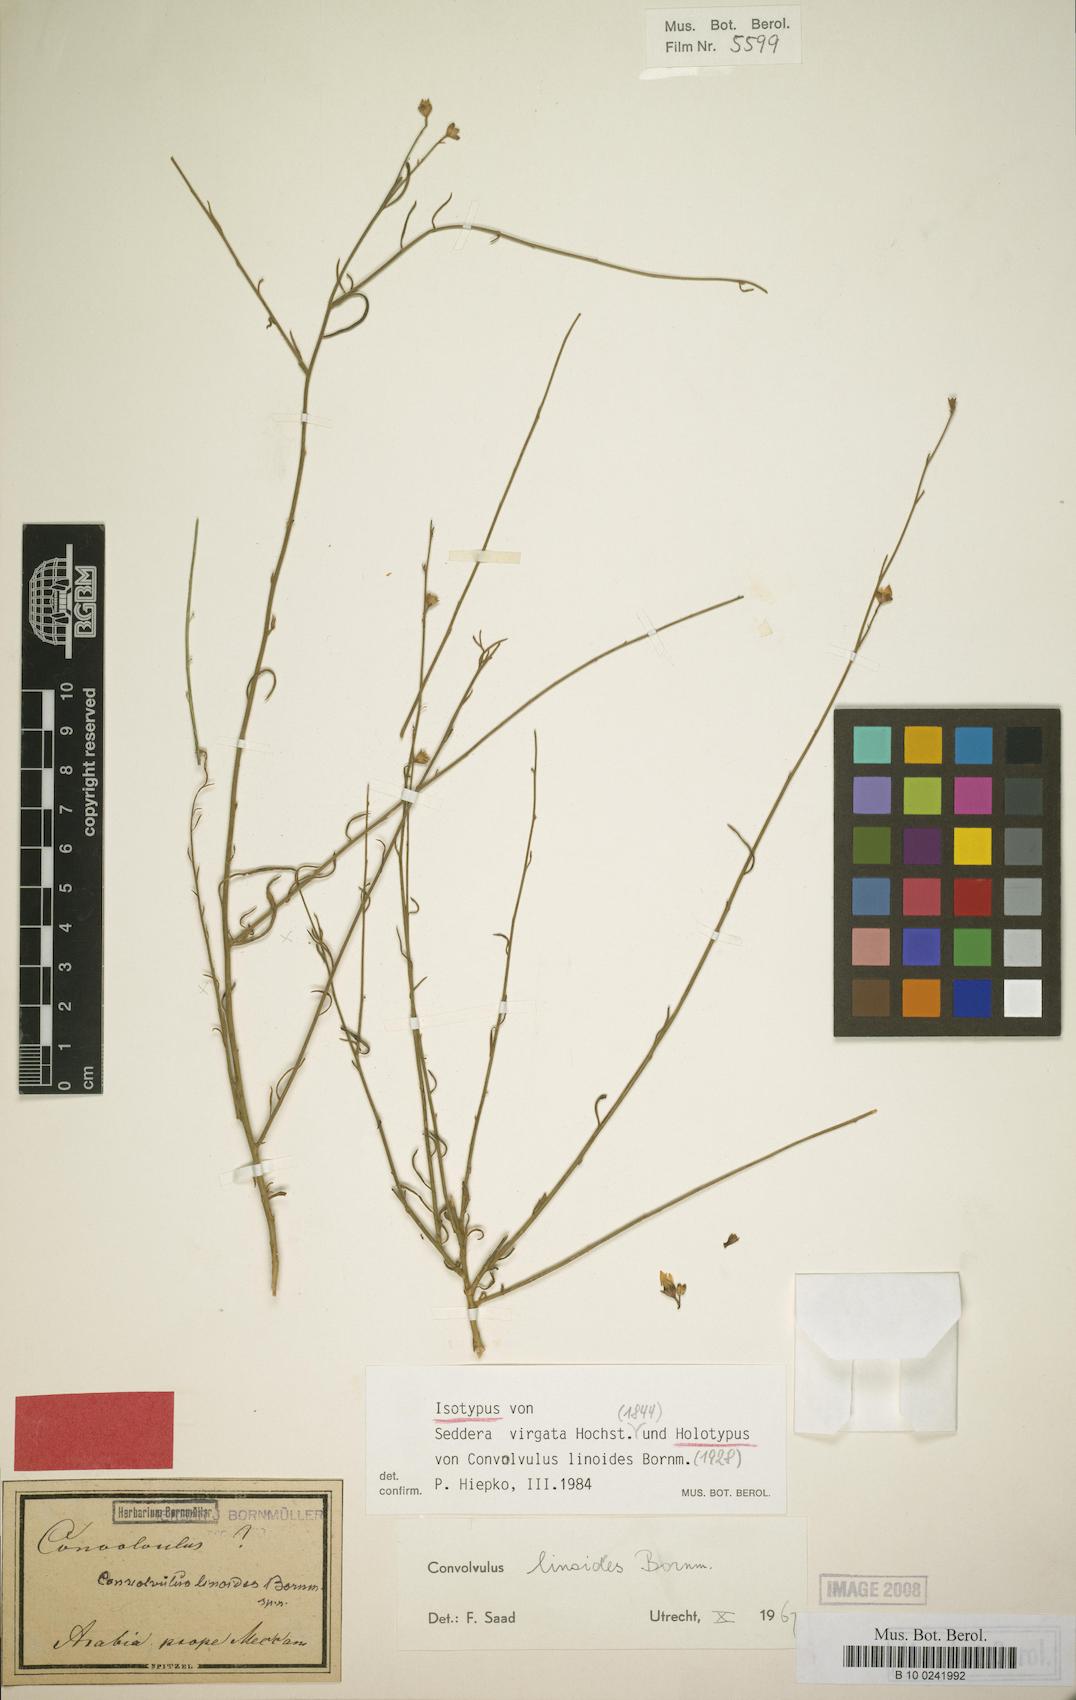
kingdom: Plantae
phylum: Tracheophyta
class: Magnoliopsida
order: Solanales
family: Convolvulaceae
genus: Seddera
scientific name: Seddera virgata
